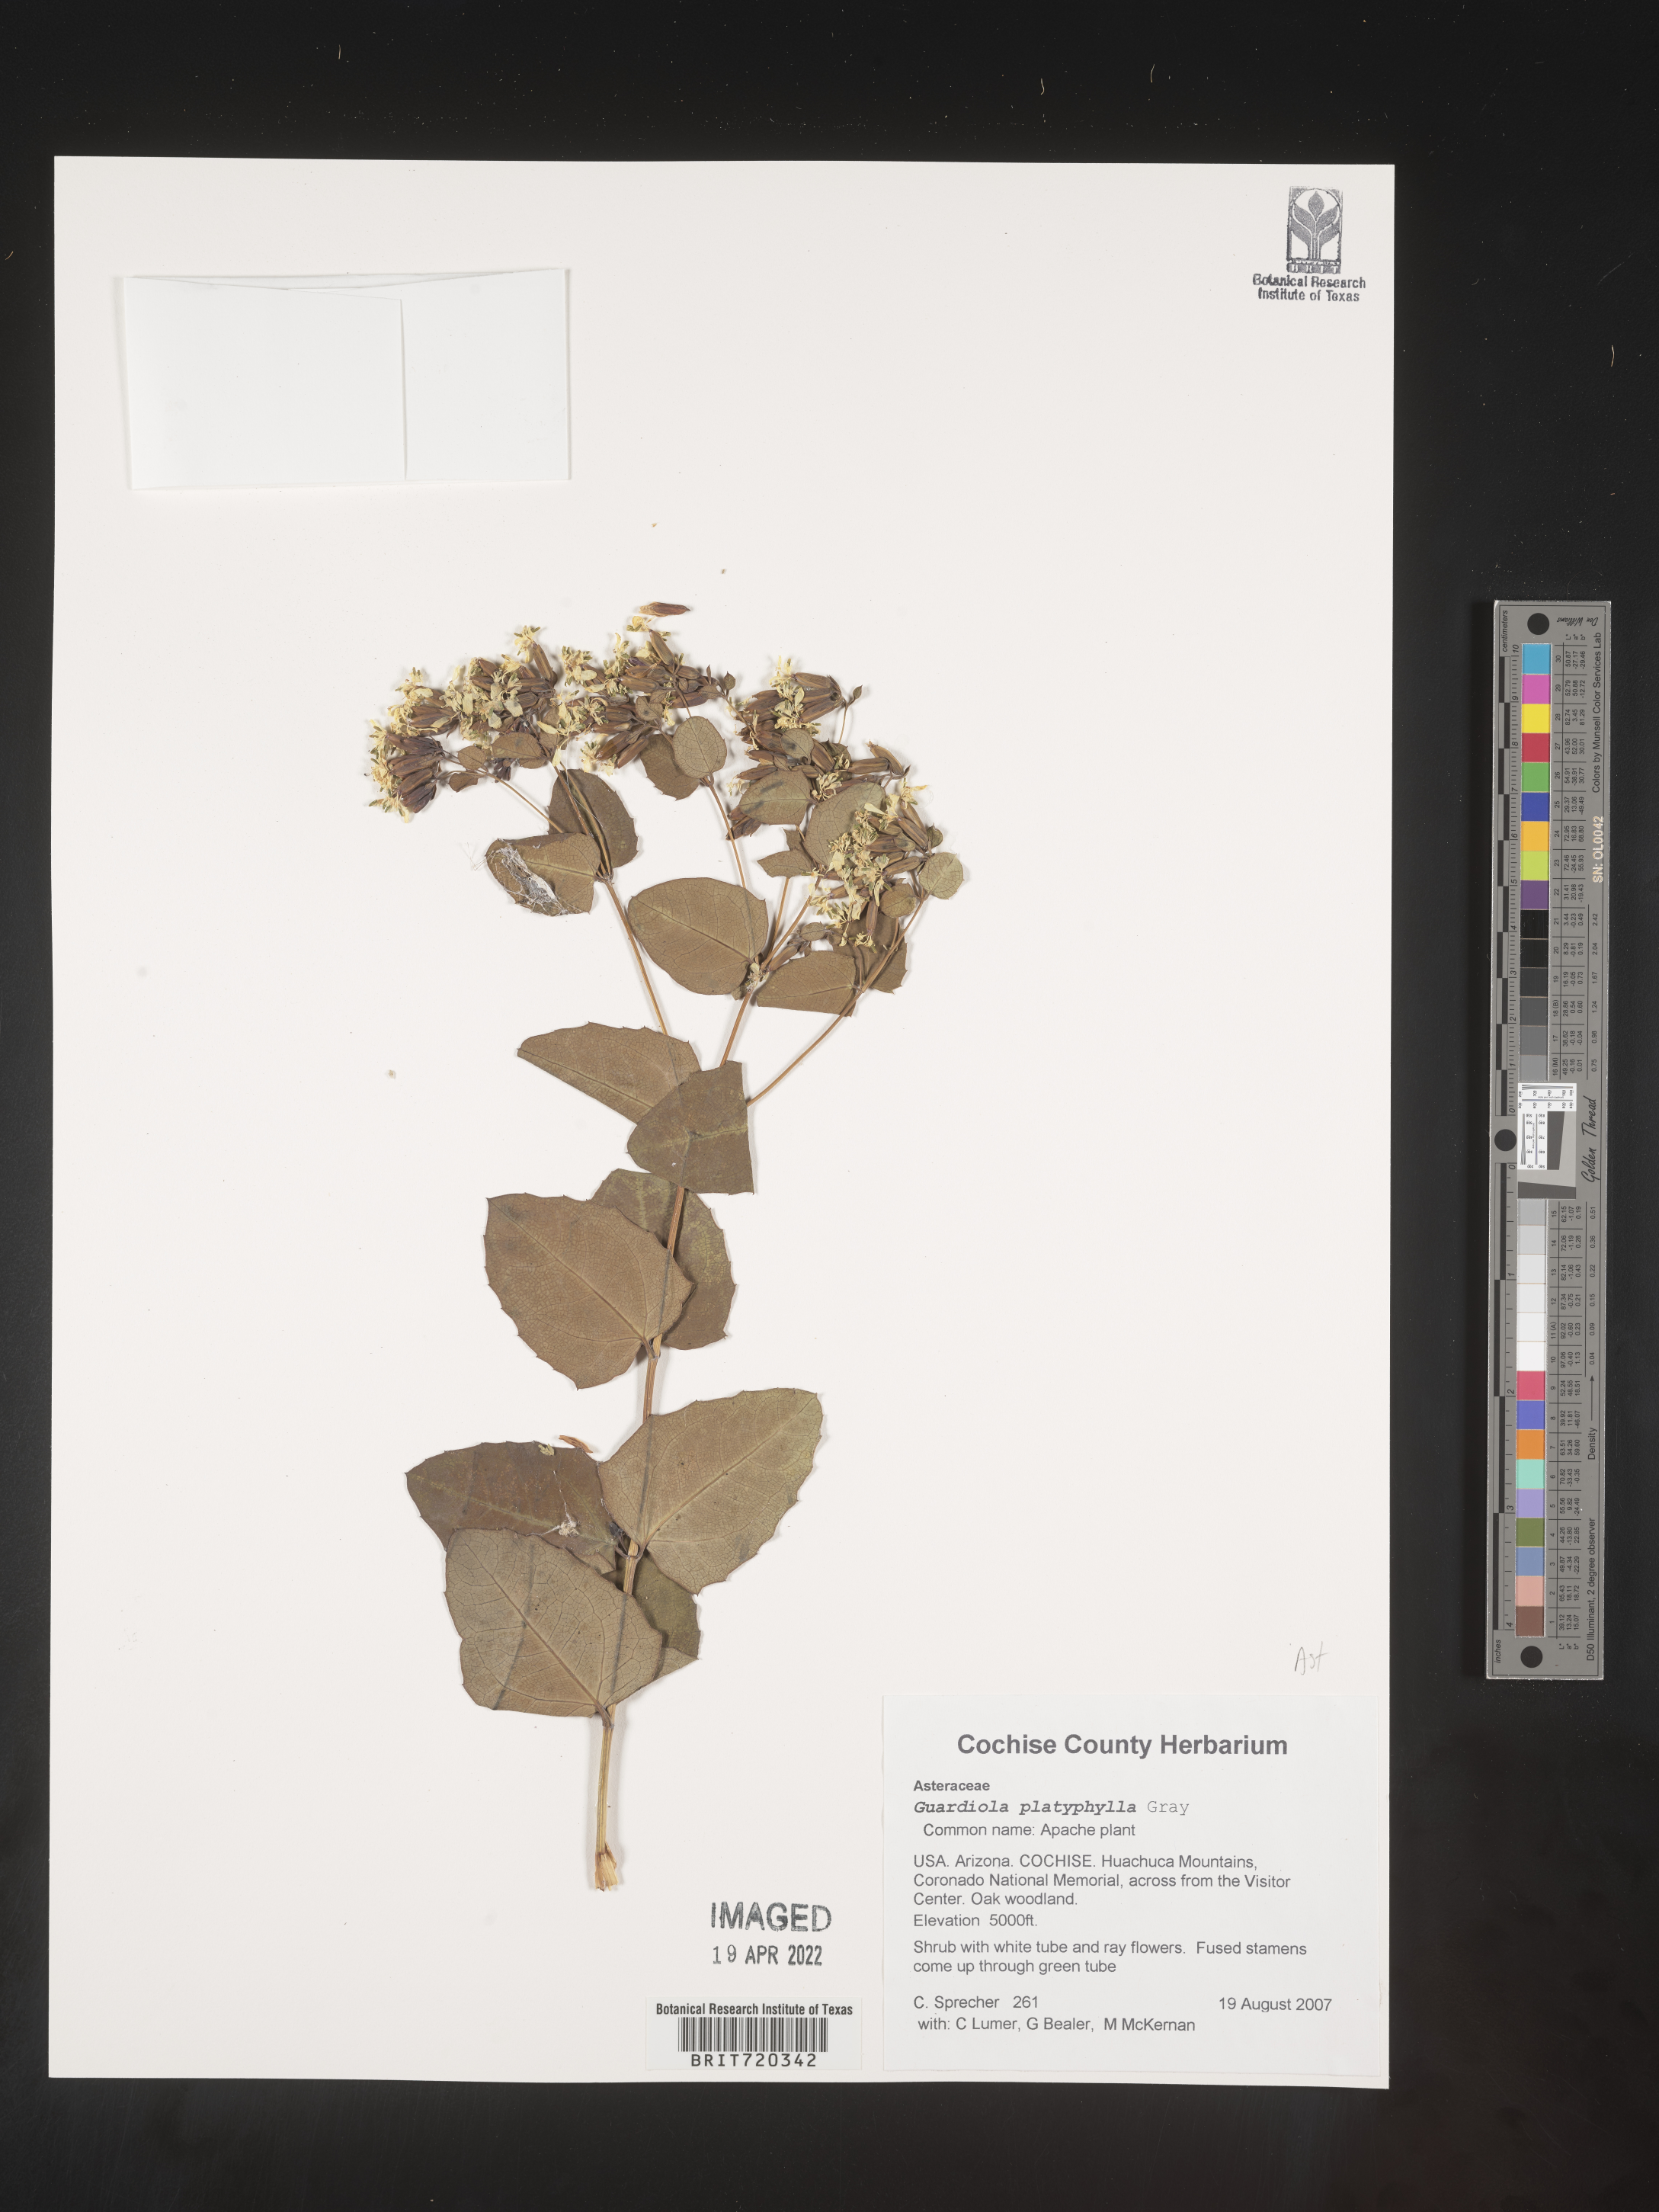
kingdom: Plantae
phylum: Tracheophyta
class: Magnoliopsida
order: Asterales
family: Asteraceae
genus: Guardiola
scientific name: Guardiola
